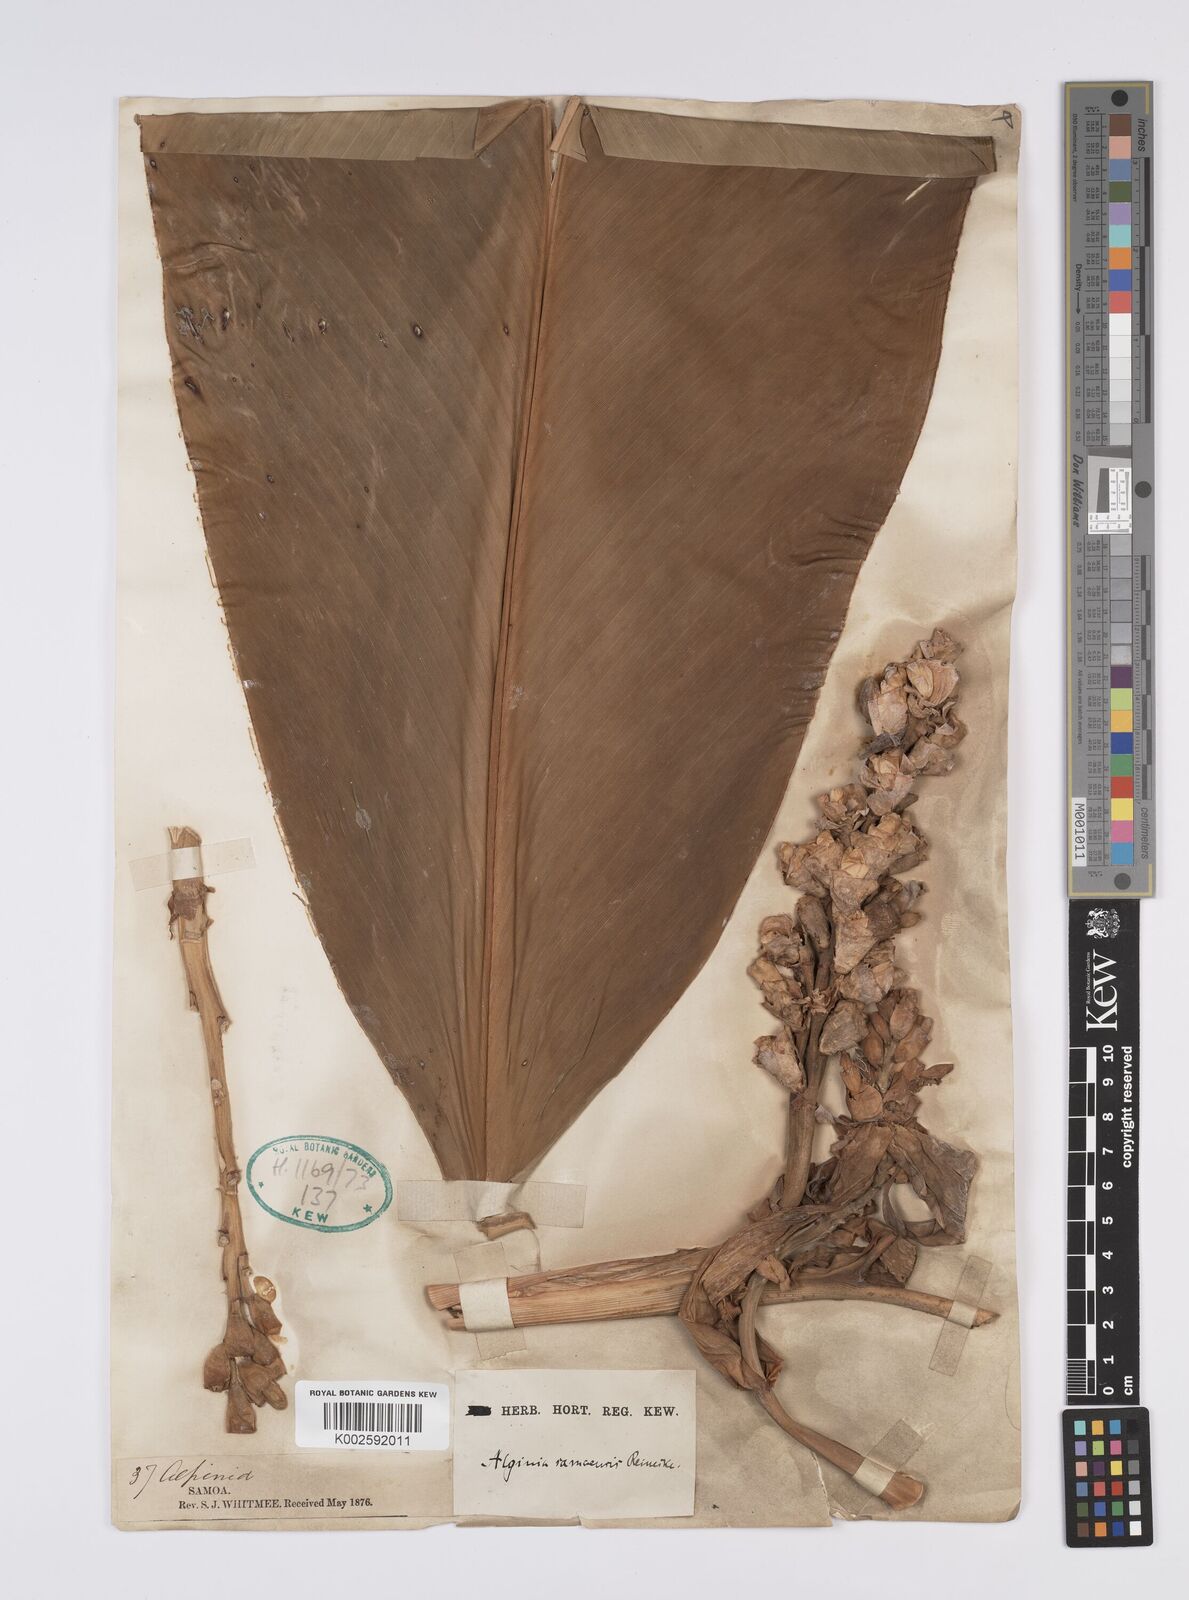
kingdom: Plantae
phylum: Tracheophyta
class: Liliopsida
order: Zingiberales
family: Zingiberaceae
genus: Alpinia
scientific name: Alpinia samoensis
